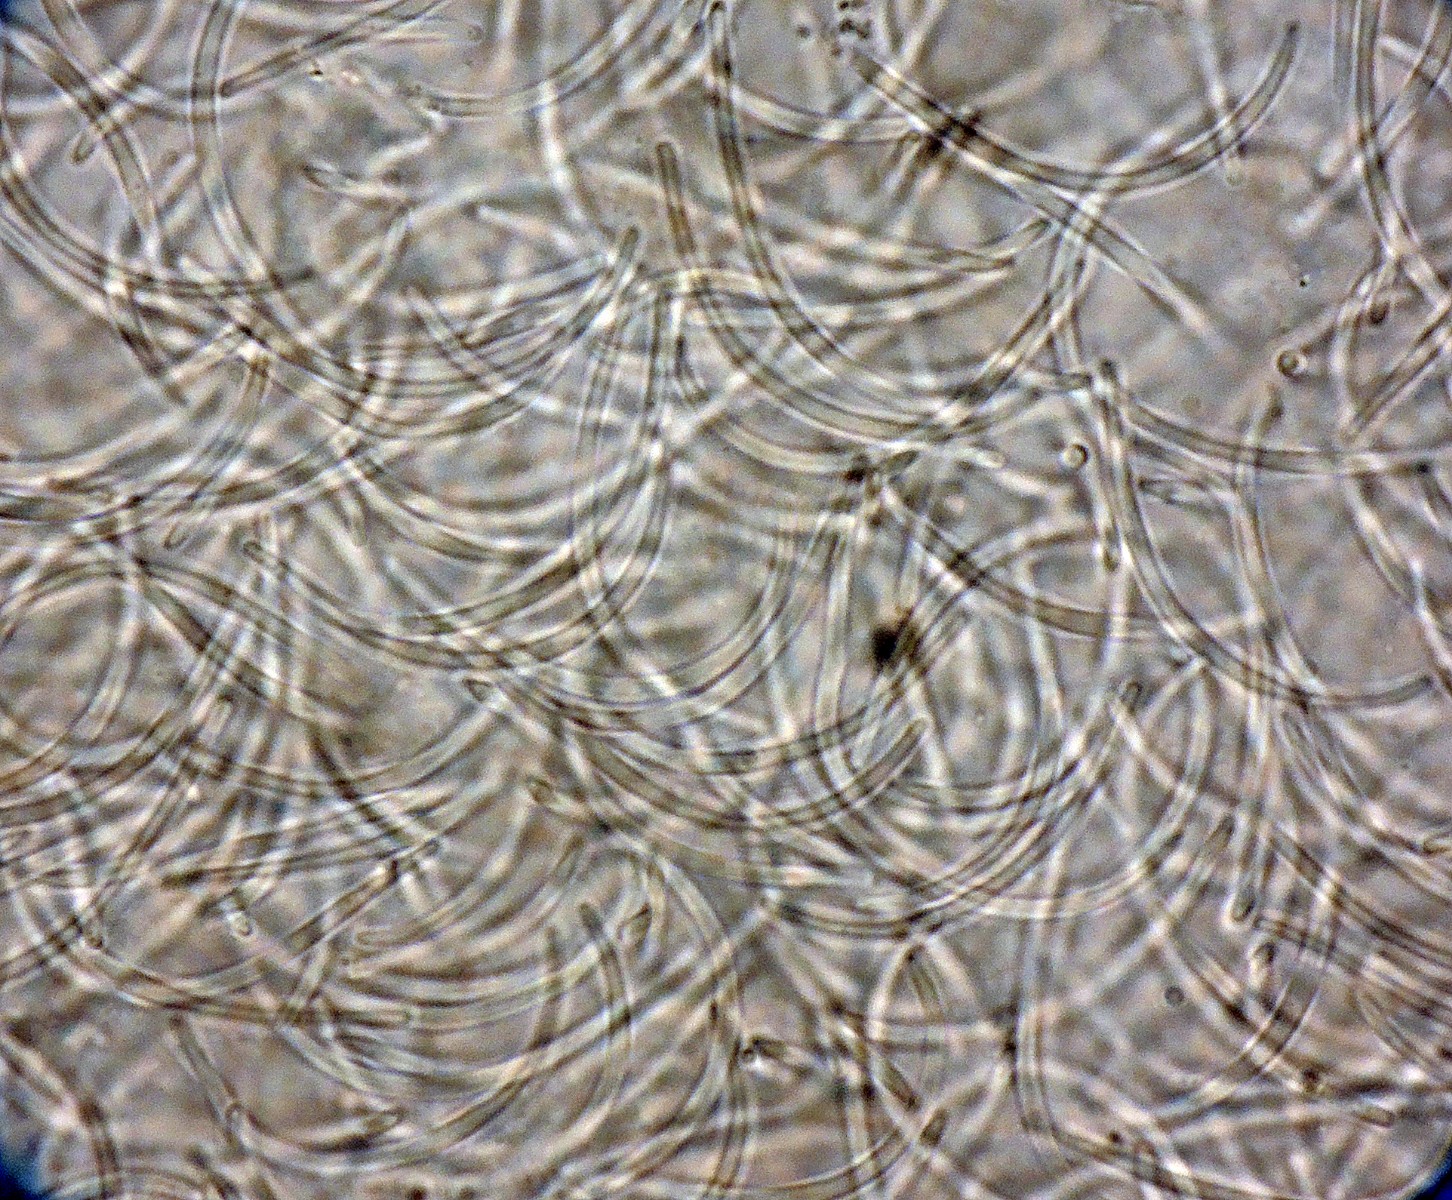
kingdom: Fungi
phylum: Ascomycota
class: Sordariomycetes
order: Diaporthales
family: Diaporthaceae
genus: Diaporthe
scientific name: Diaporthe corni
